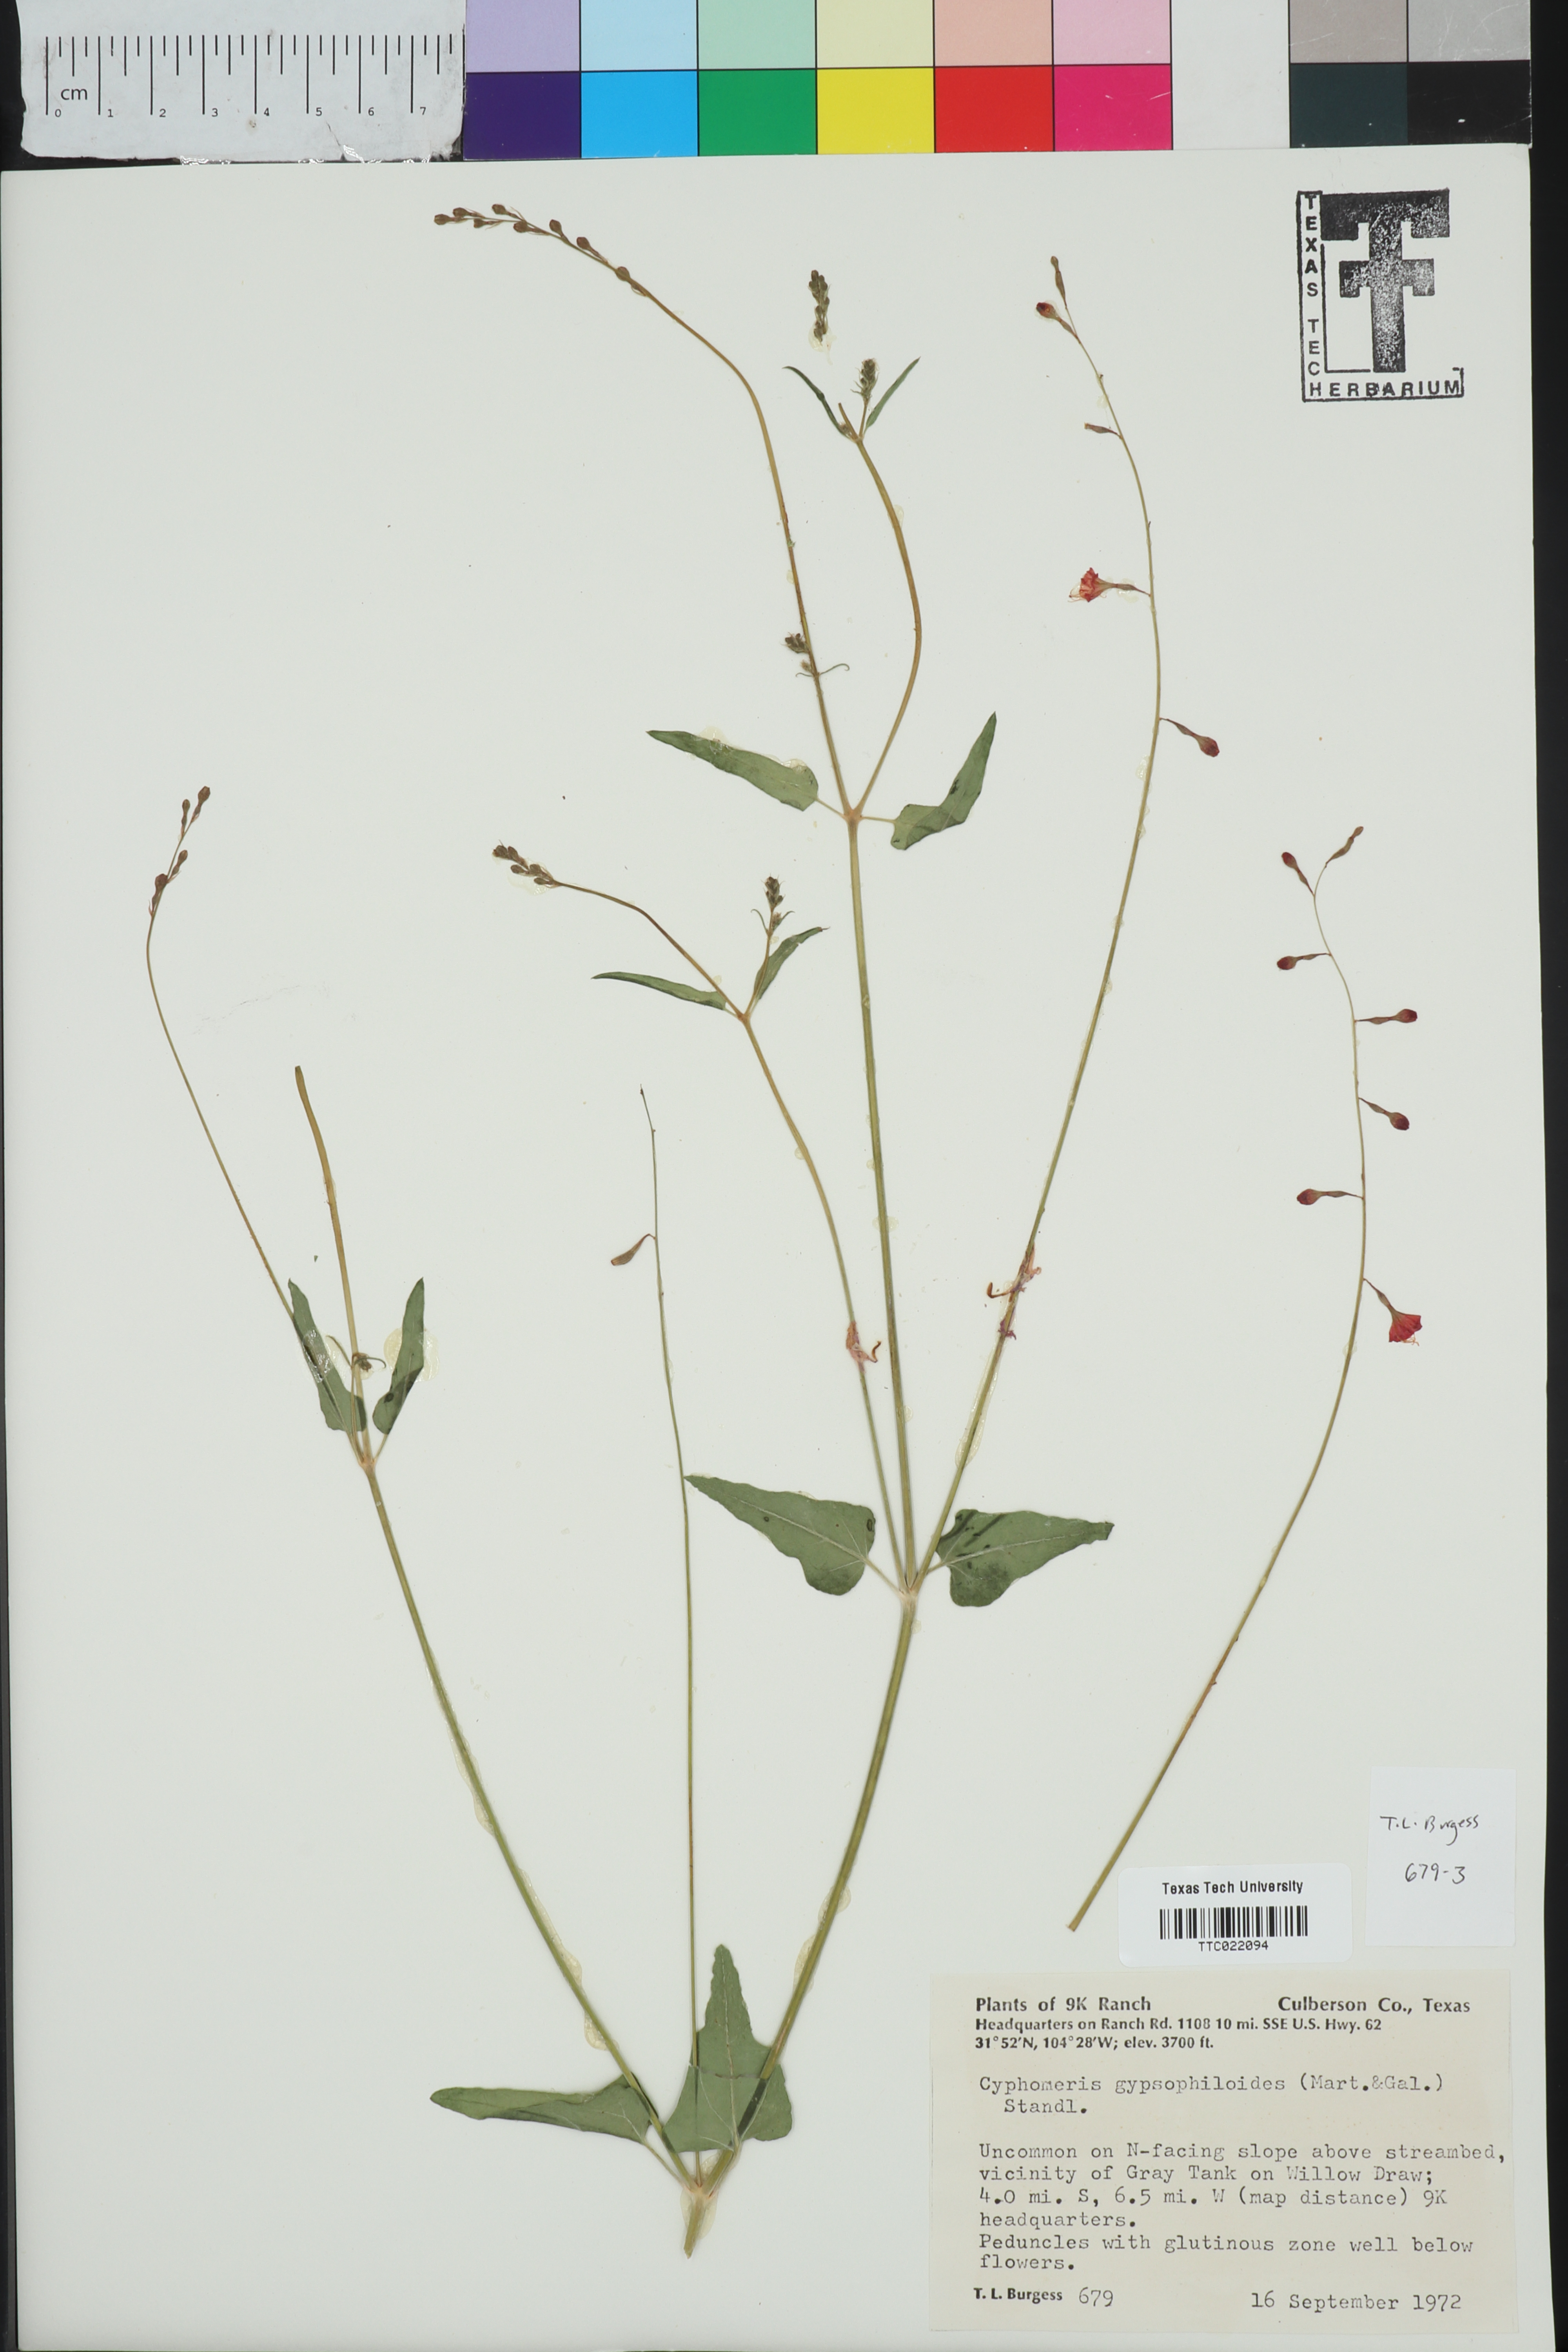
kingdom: Plantae
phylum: Tracheophyta
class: Magnoliopsida
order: Caryophyllales
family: Nyctaginaceae
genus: Cyphomeris
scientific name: Cyphomeris gypsophiloides
